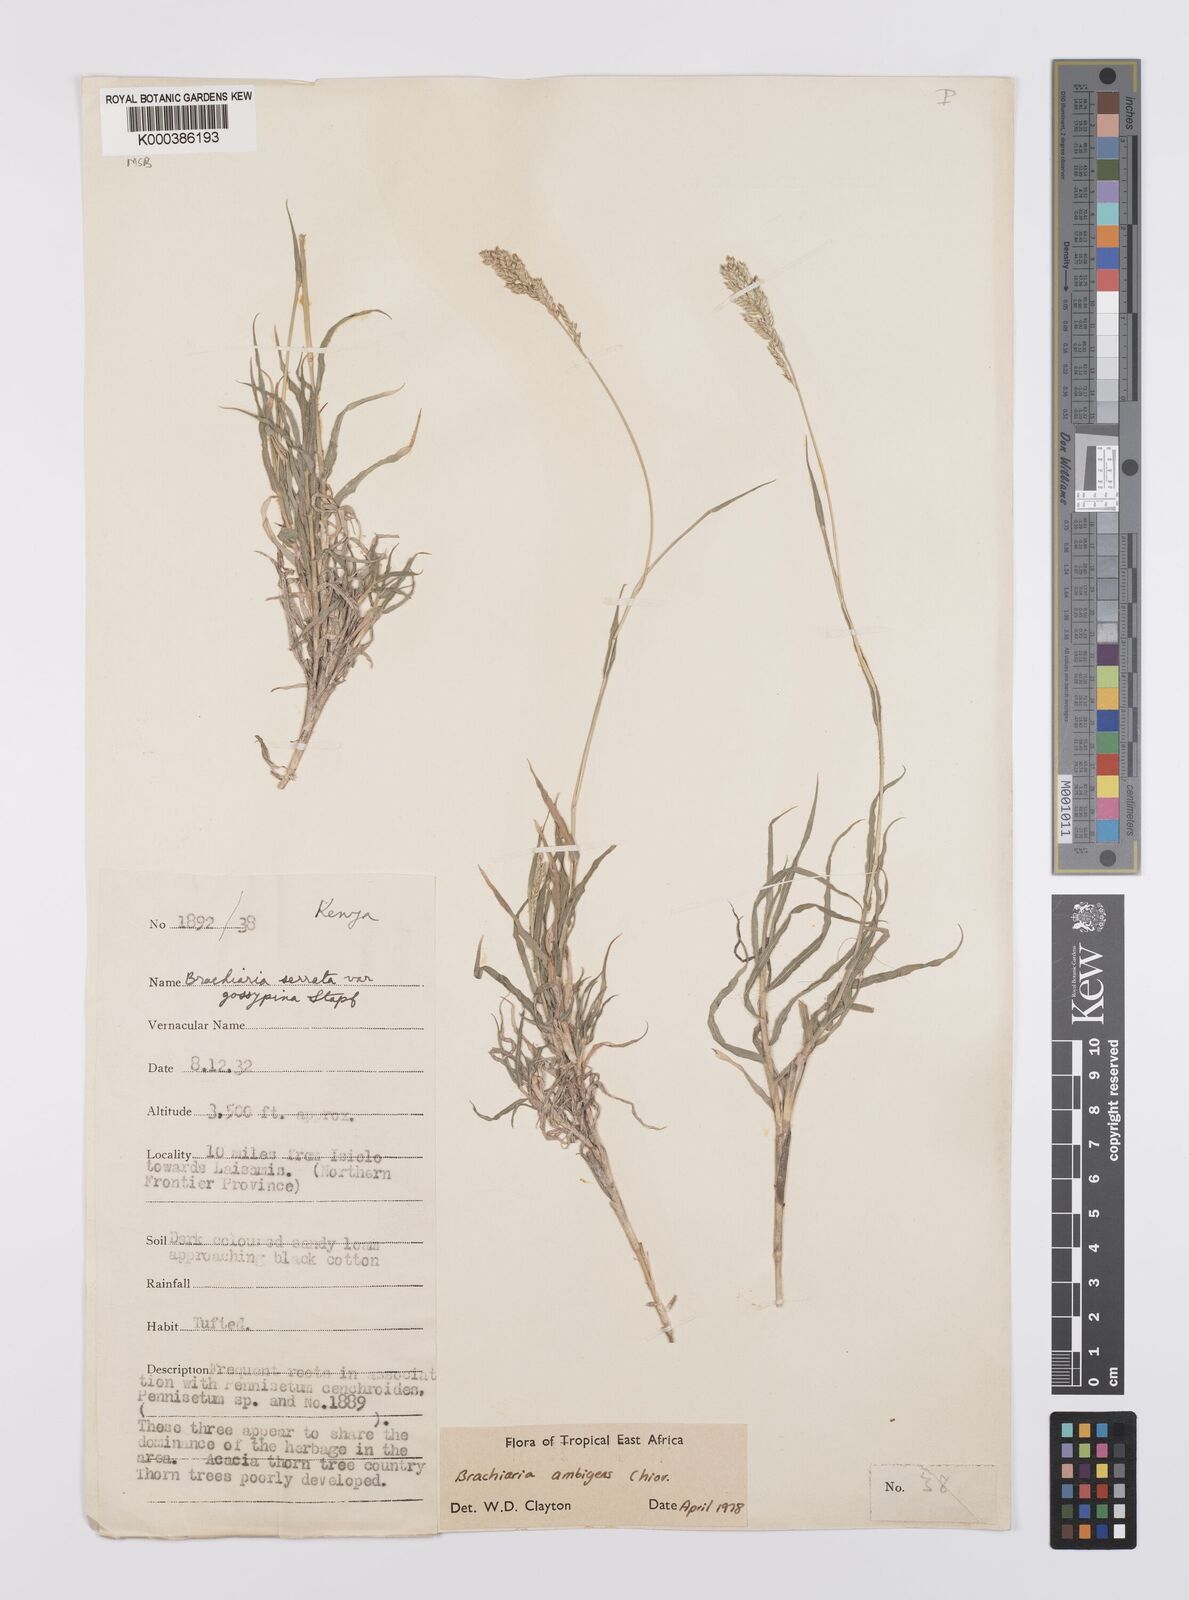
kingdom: Plantae
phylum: Tracheophyta
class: Liliopsida
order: Poales
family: Poaceae
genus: Urochloa
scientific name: Urochloa Brachiaria ambigens
